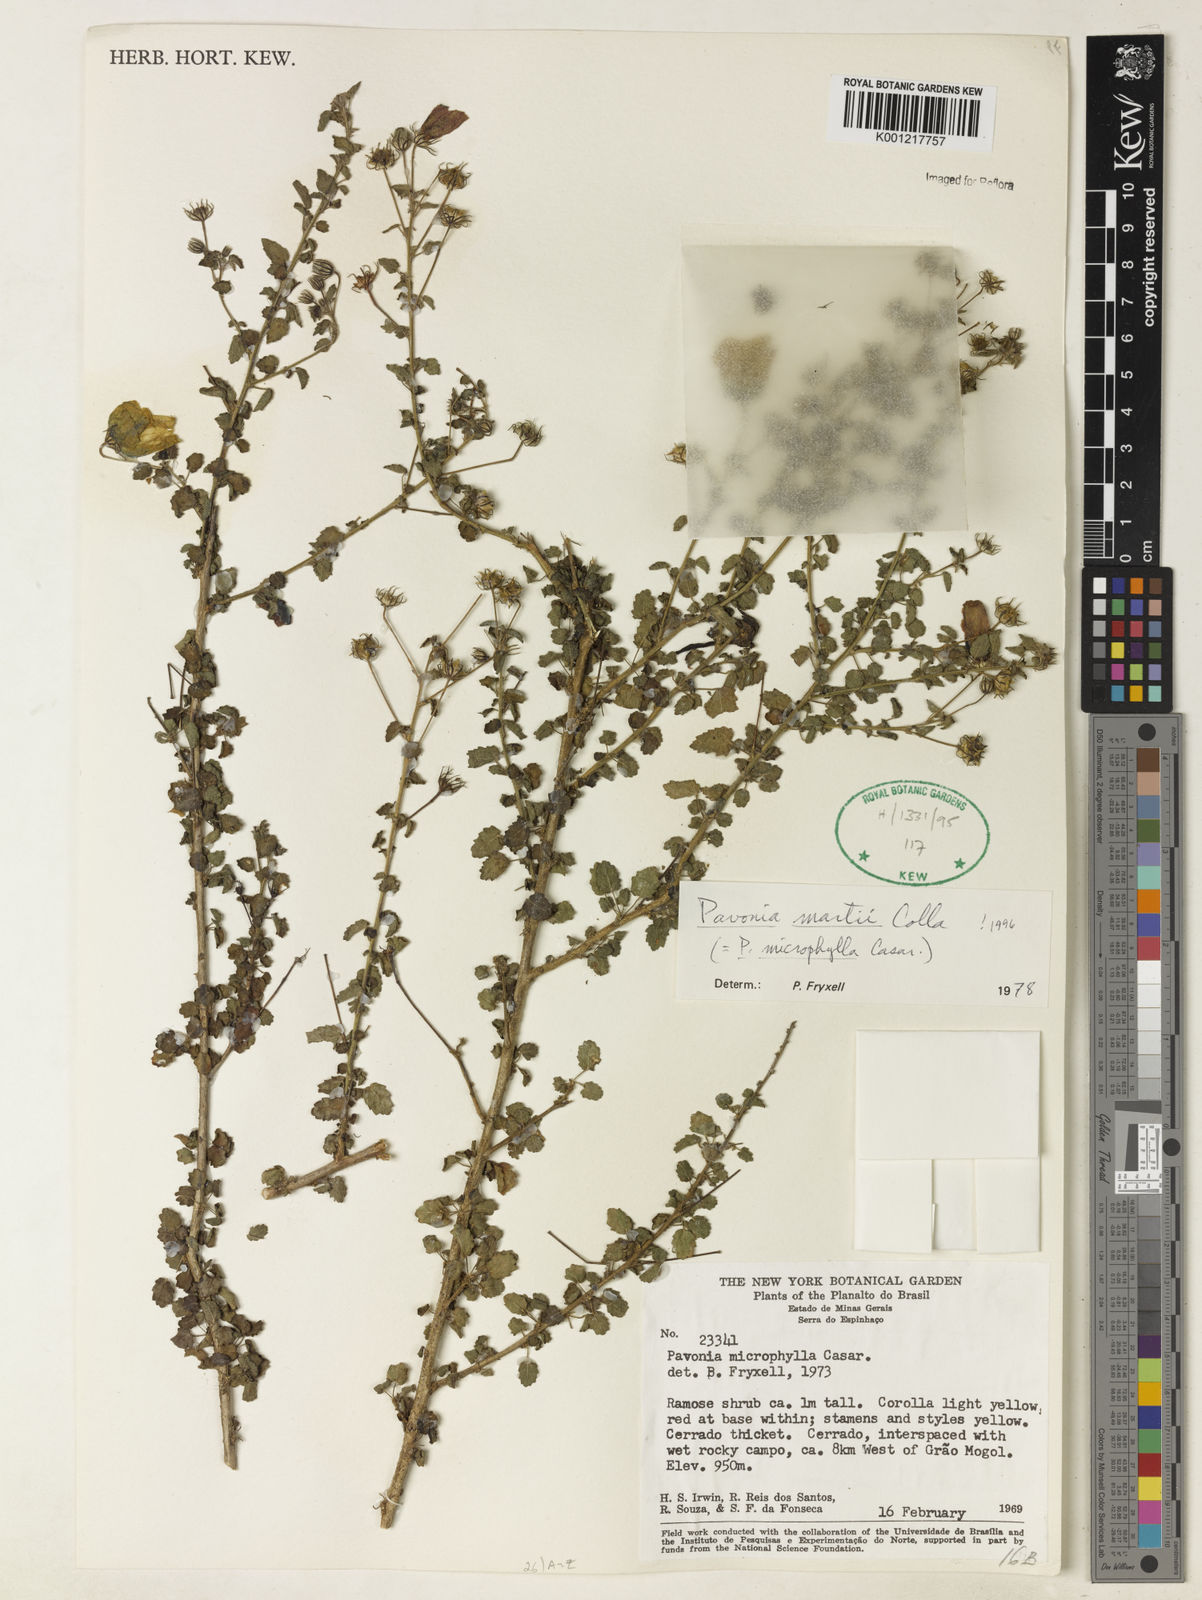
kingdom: Plantae
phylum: Tracheophyta
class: Magnoliopsida
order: Malvales
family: Malvaceae
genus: Pavonia
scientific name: Pavonia martii
